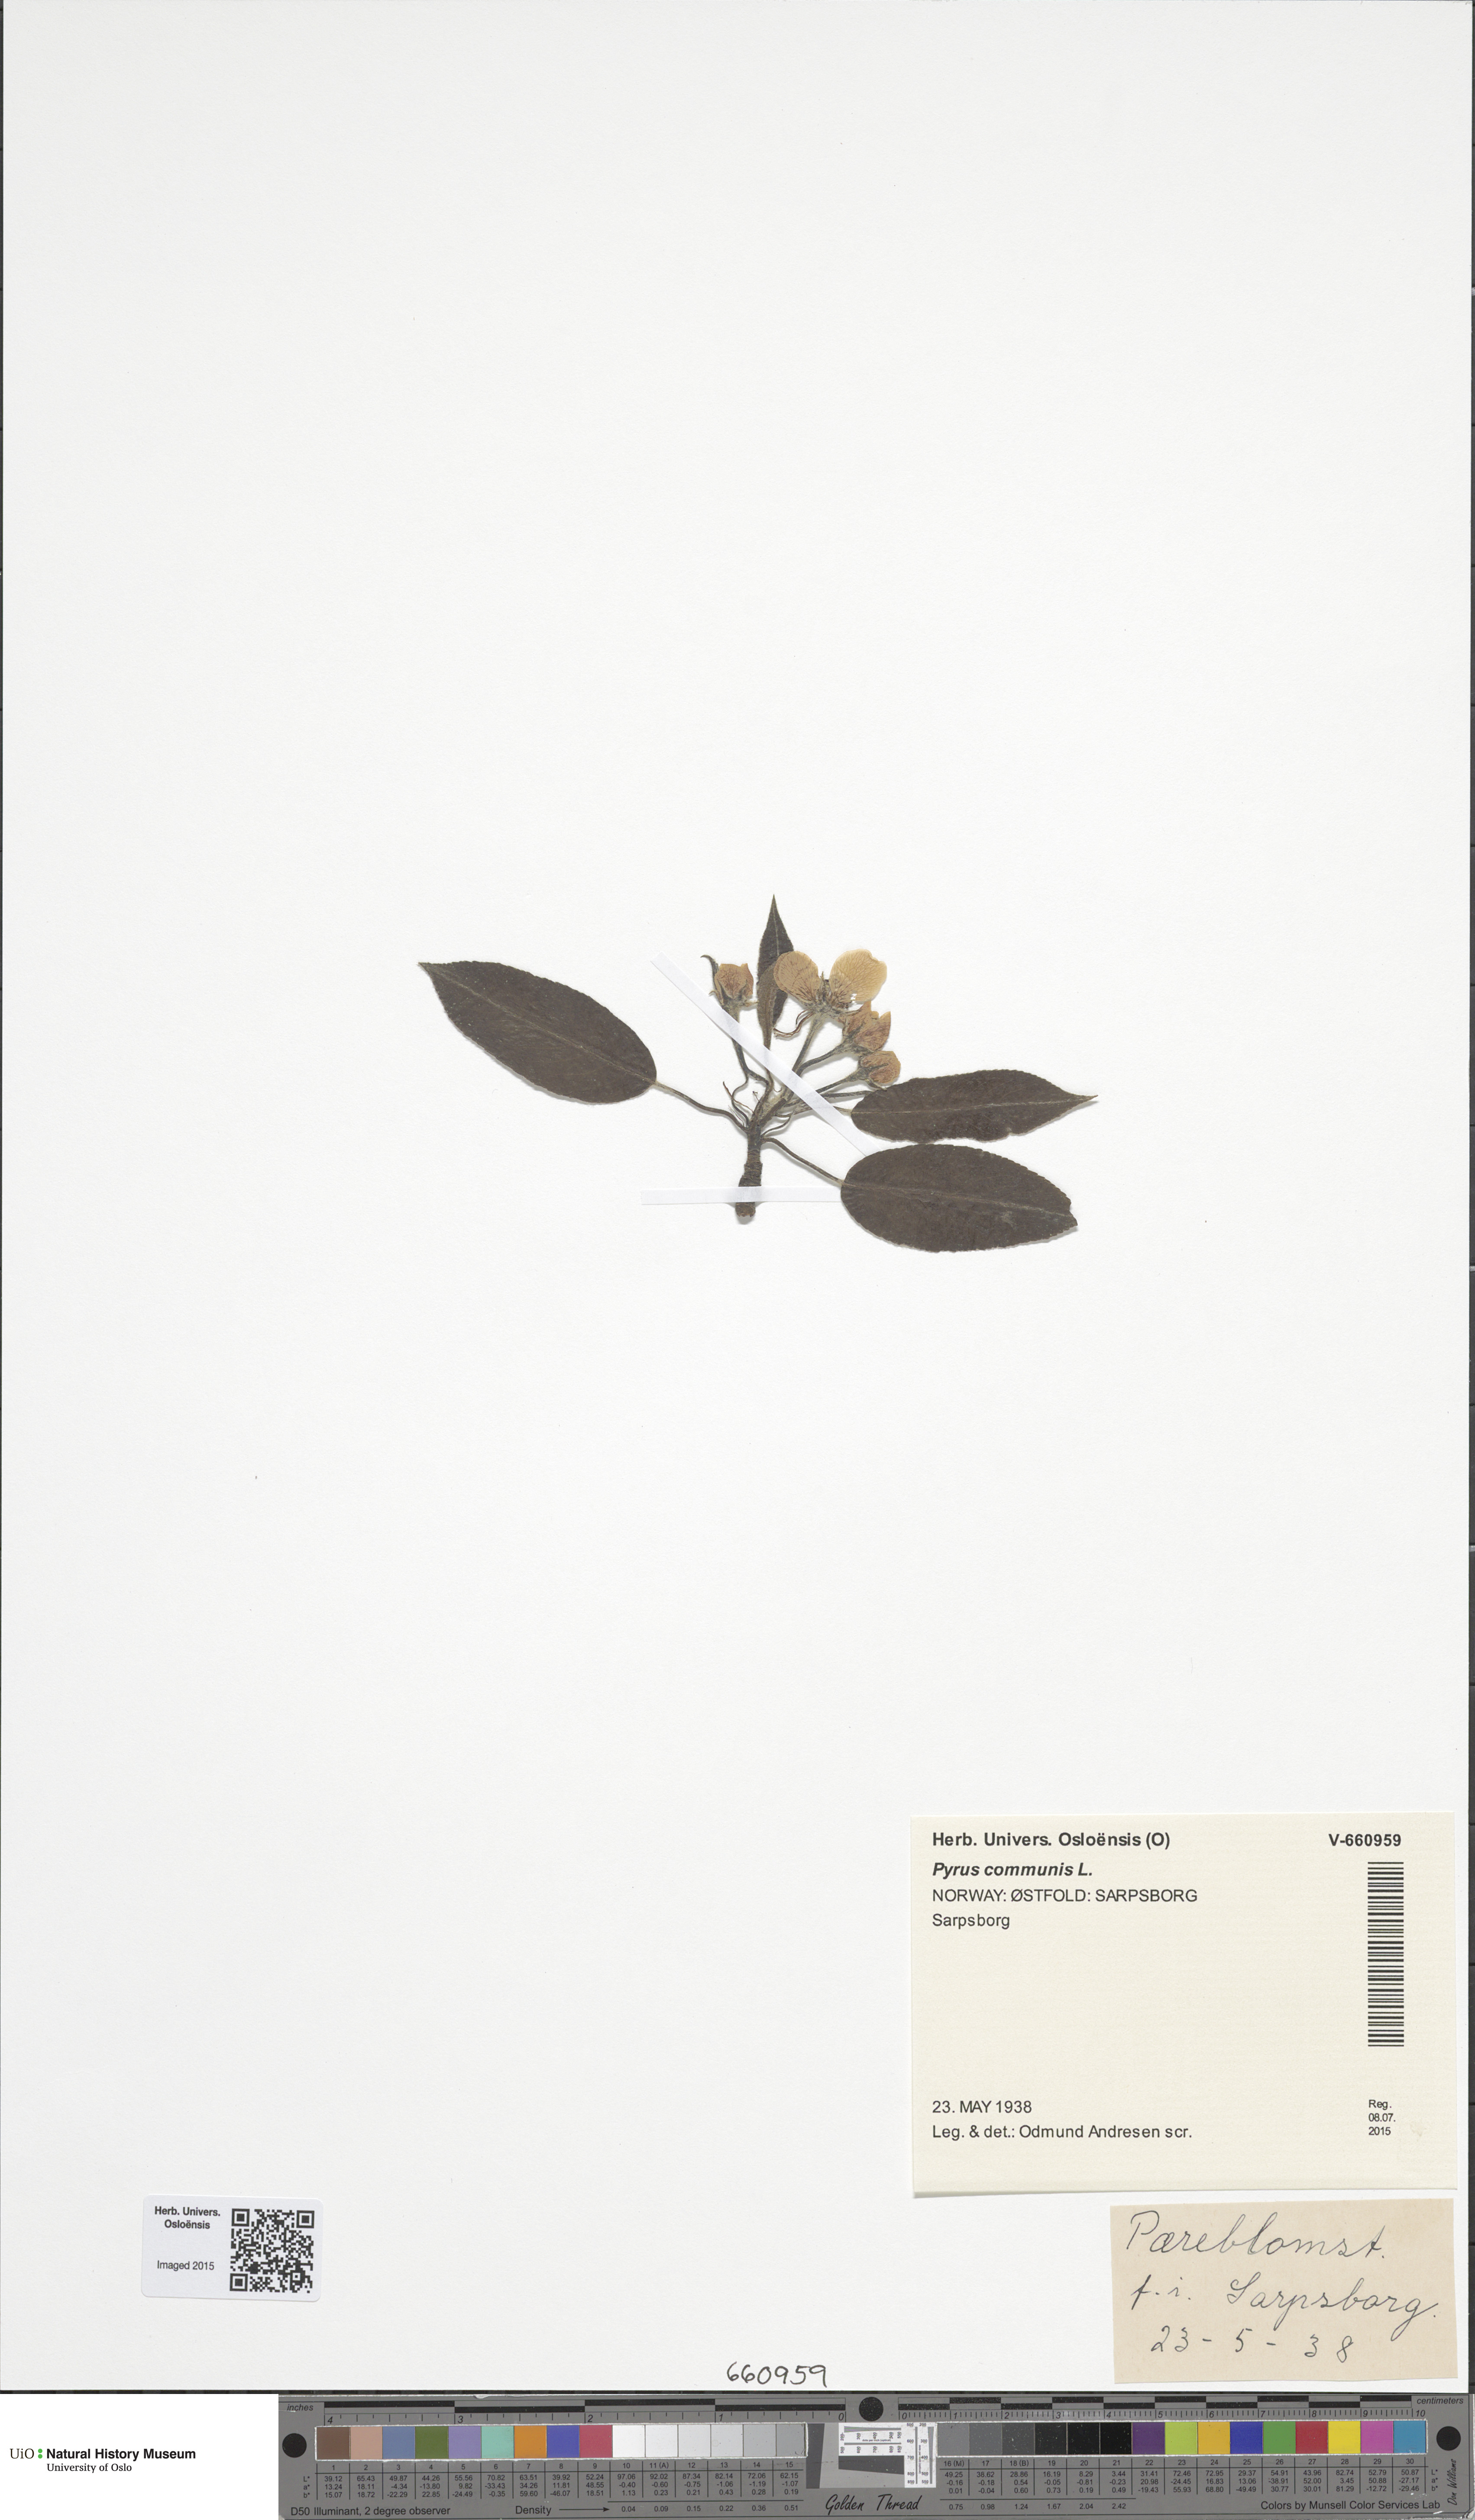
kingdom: Plantae
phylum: Tracheophyta
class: Magnoliopsida
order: Rosales
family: Rosaceae
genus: Pyrus
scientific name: Pyrus communis
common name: Pear
